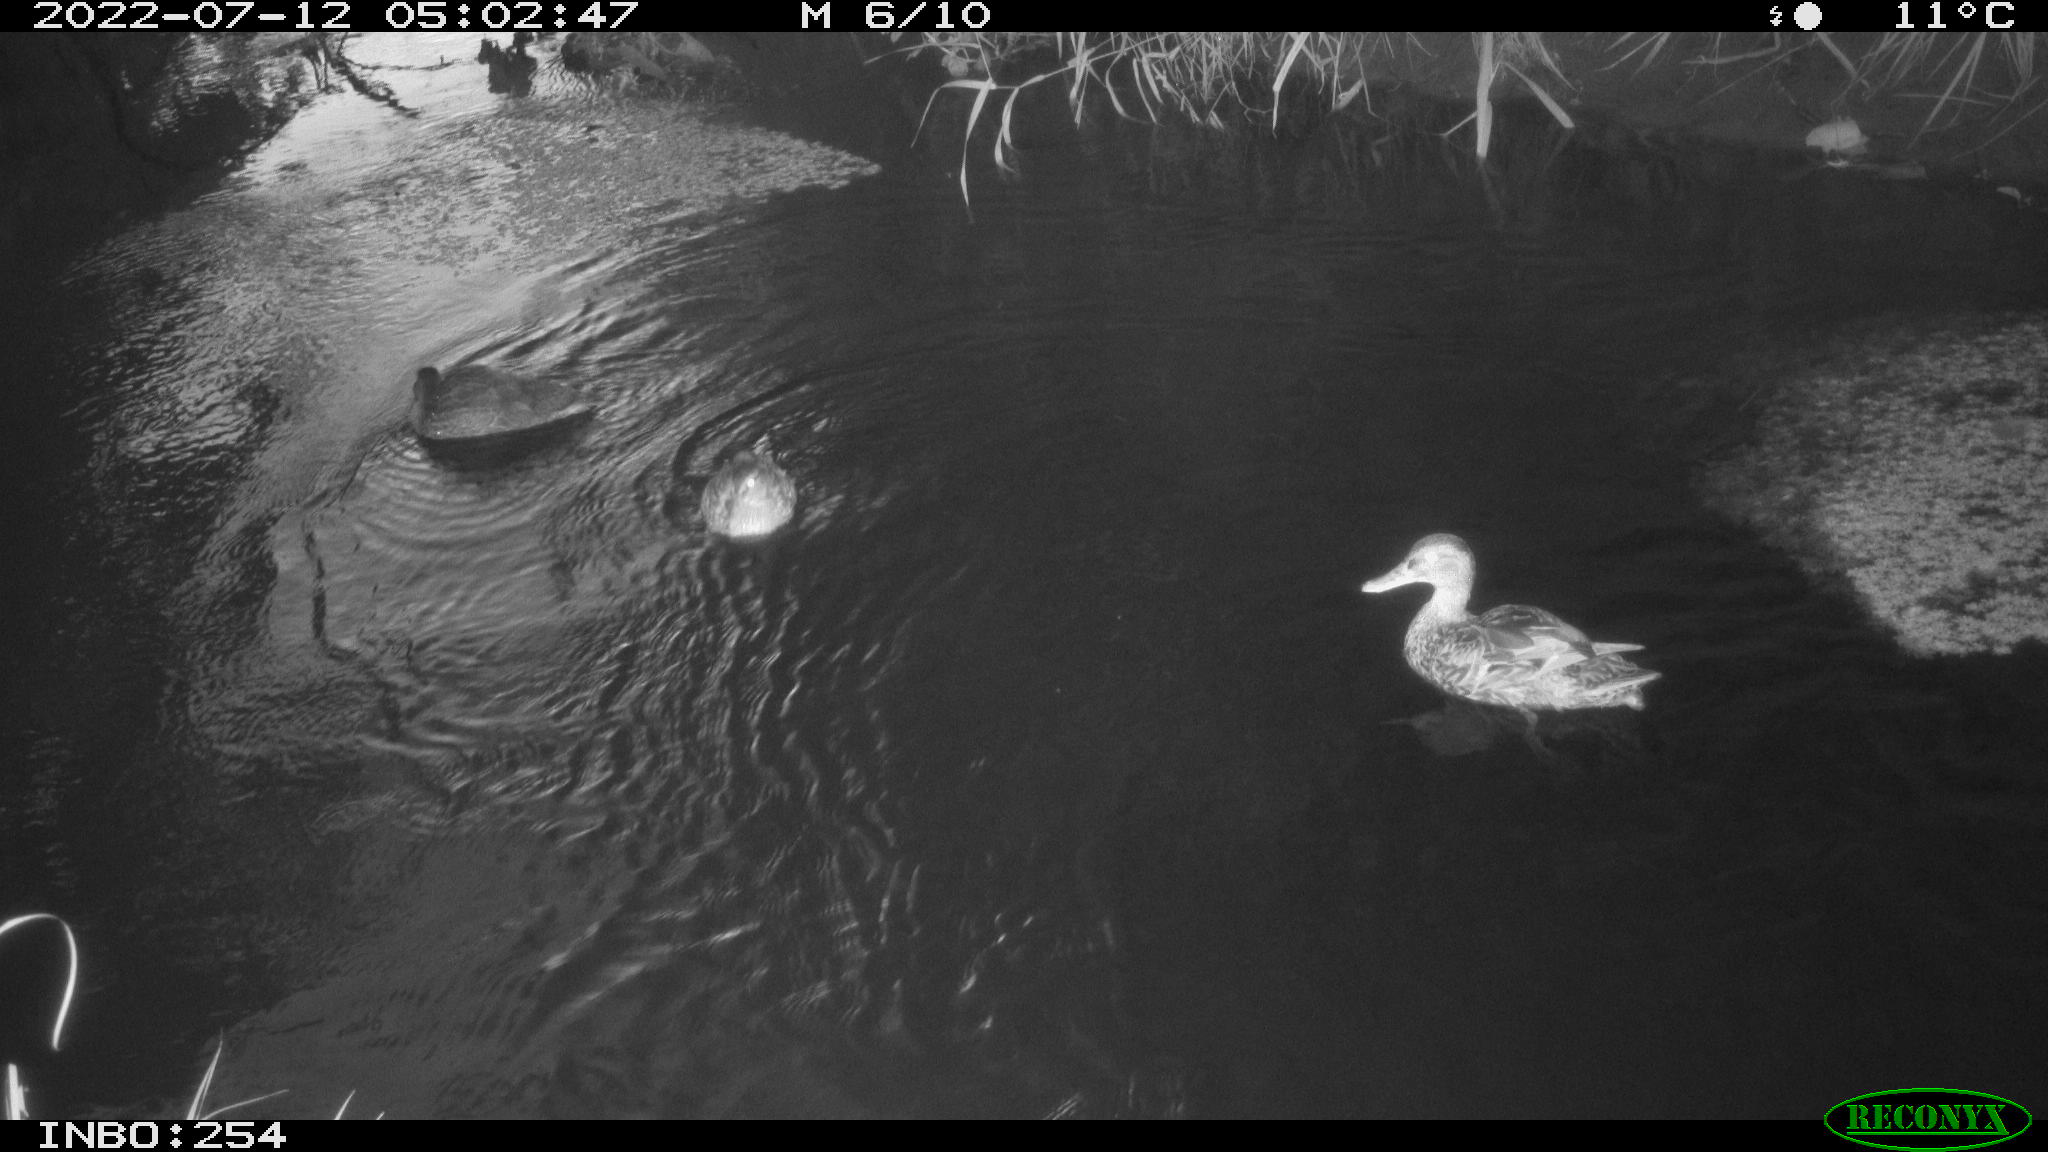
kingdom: Animalia
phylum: Chordata
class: Aves
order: Anseriformes
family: Anatidae
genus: Anas
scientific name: Anas platyrhynchos
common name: Mallard
